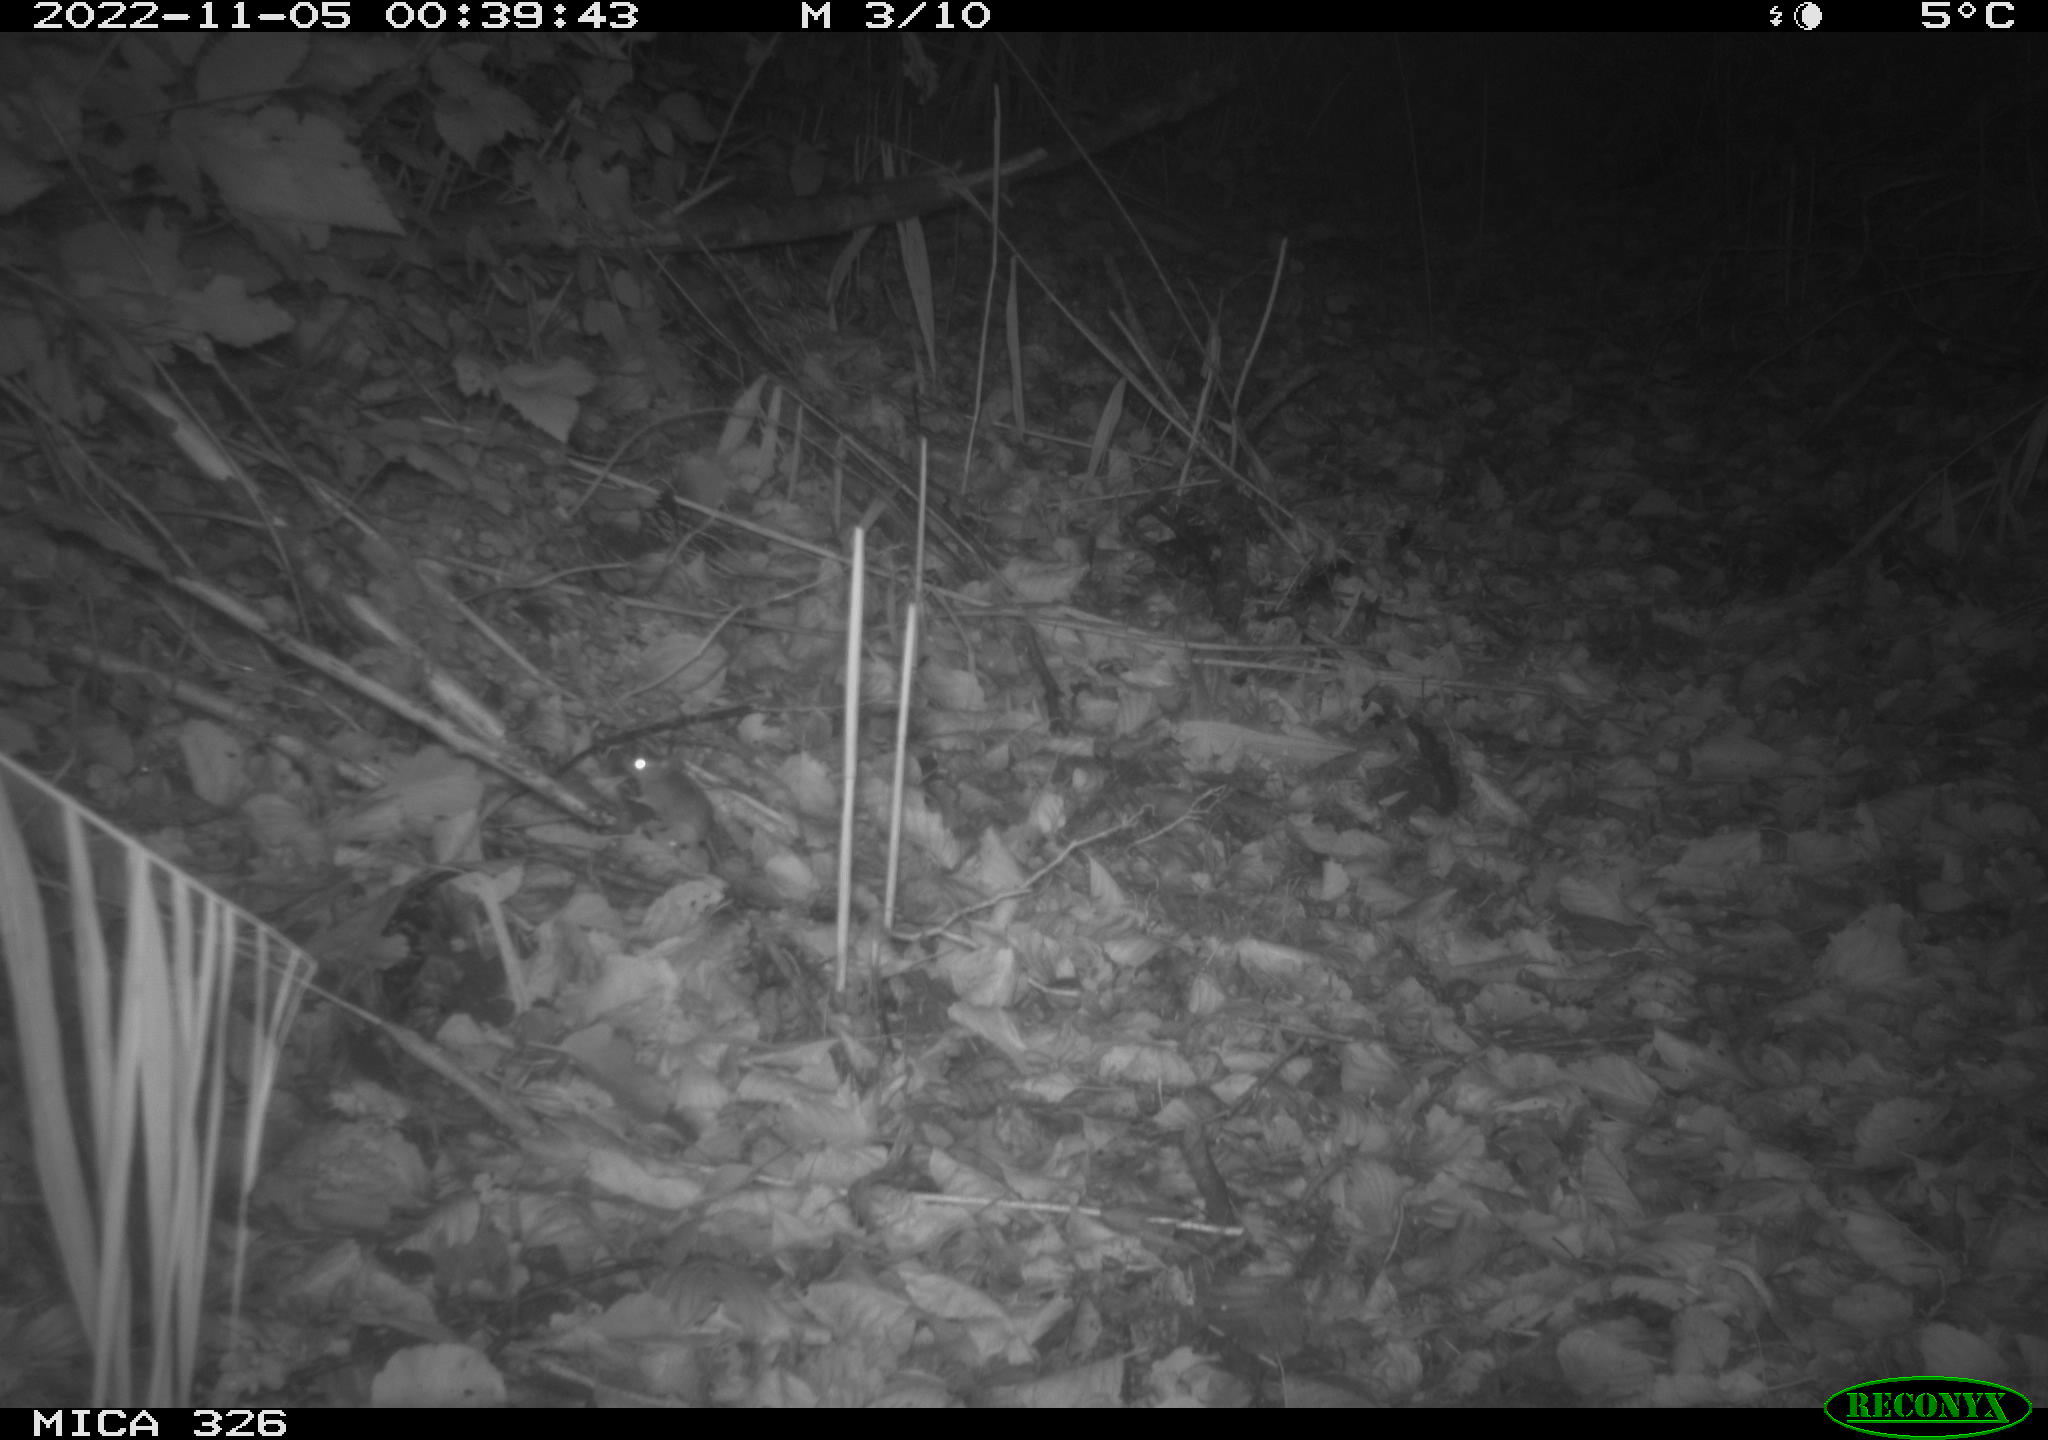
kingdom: Animalia
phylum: Chordata
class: Mammalia
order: Rodentia
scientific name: Rodentia
